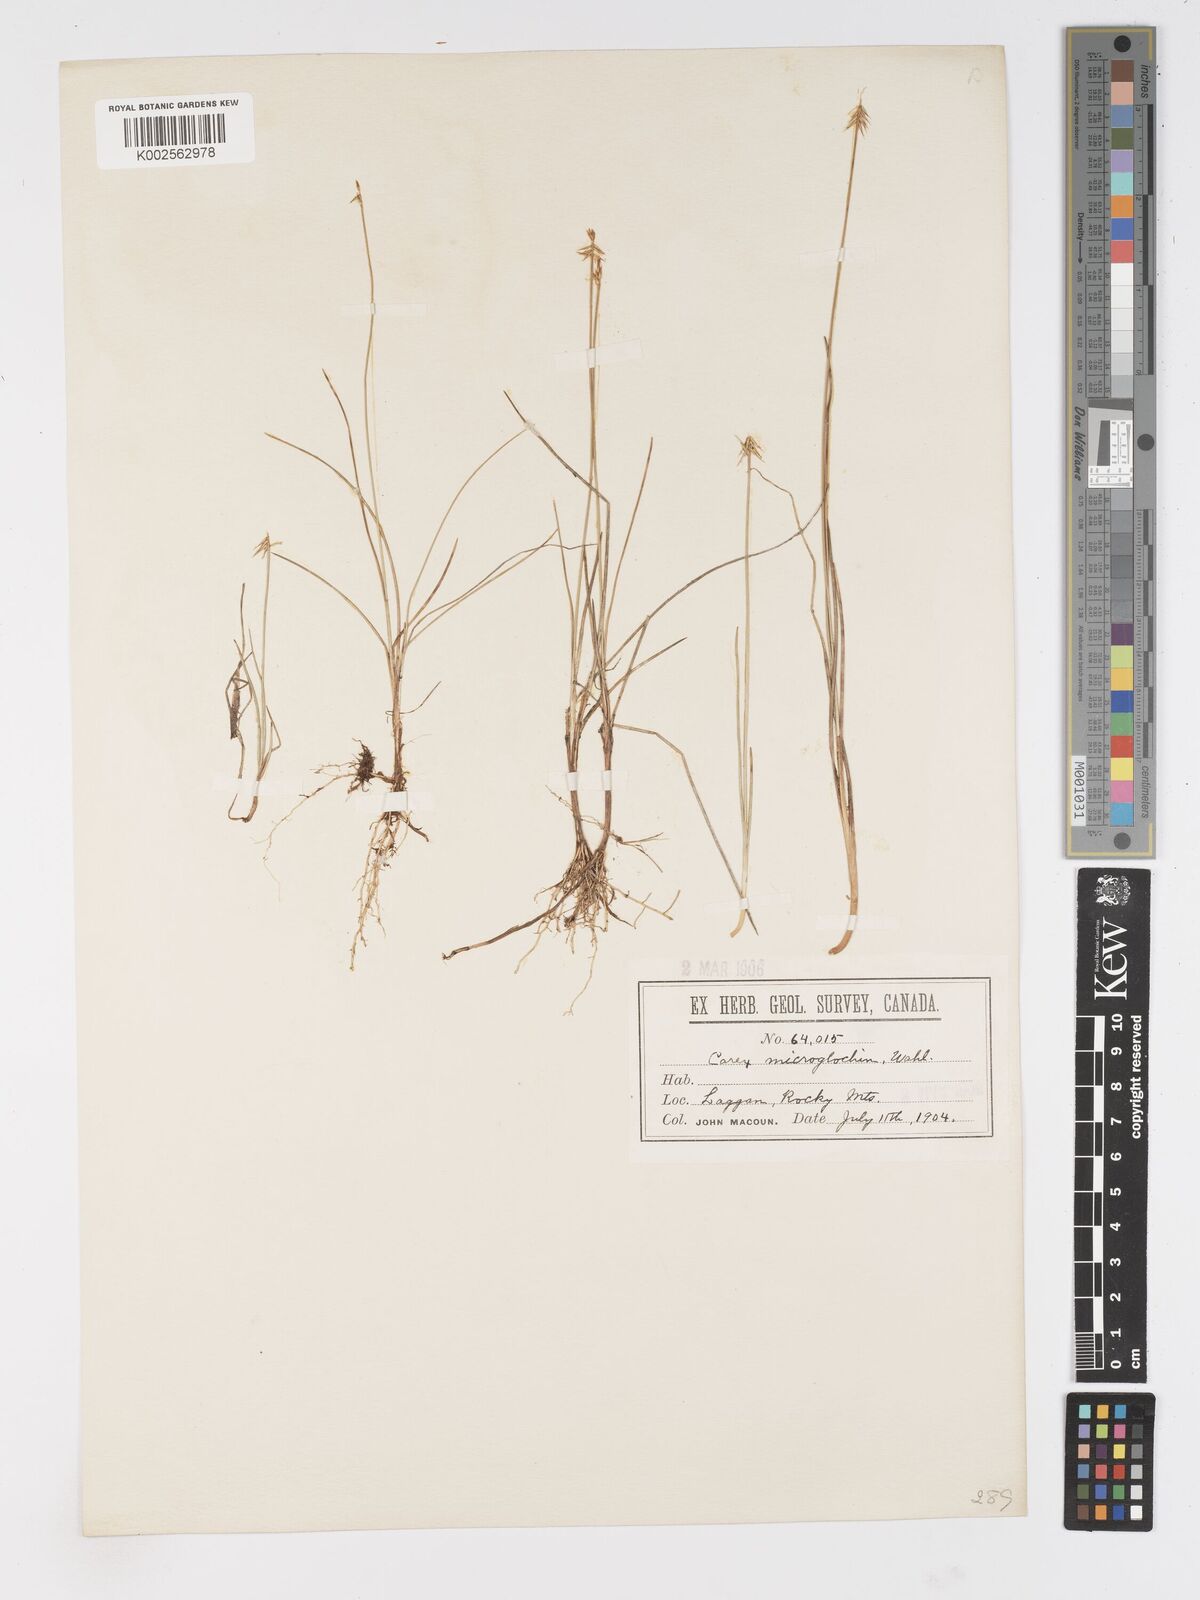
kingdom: Plantae
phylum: Tracheophyta
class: Liliopsida
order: Poales
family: Cyperaceae
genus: Carex
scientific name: Carex microglochin
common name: Bristle sedge
